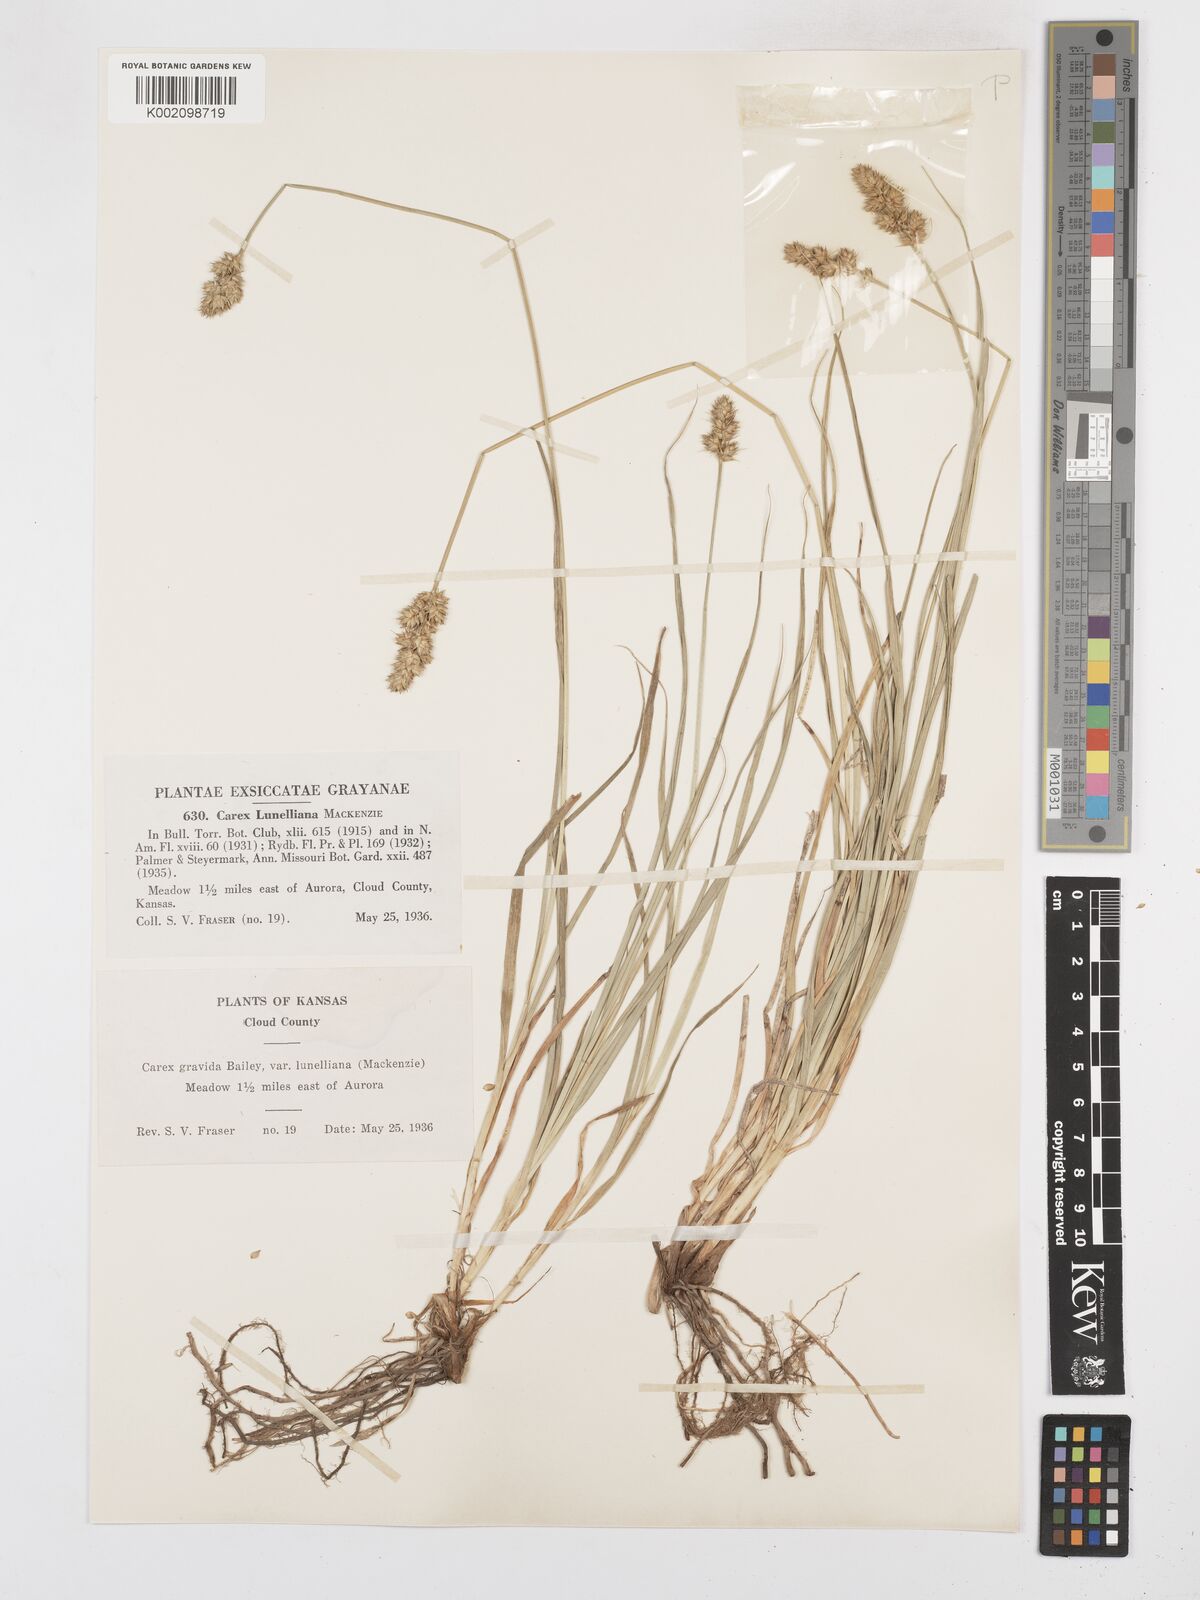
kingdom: Plantae
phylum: Tracheophyta
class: Liliopsida
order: Poales
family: Cyperaceae
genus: Carex
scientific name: Carex gravida
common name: Heavy sedge
